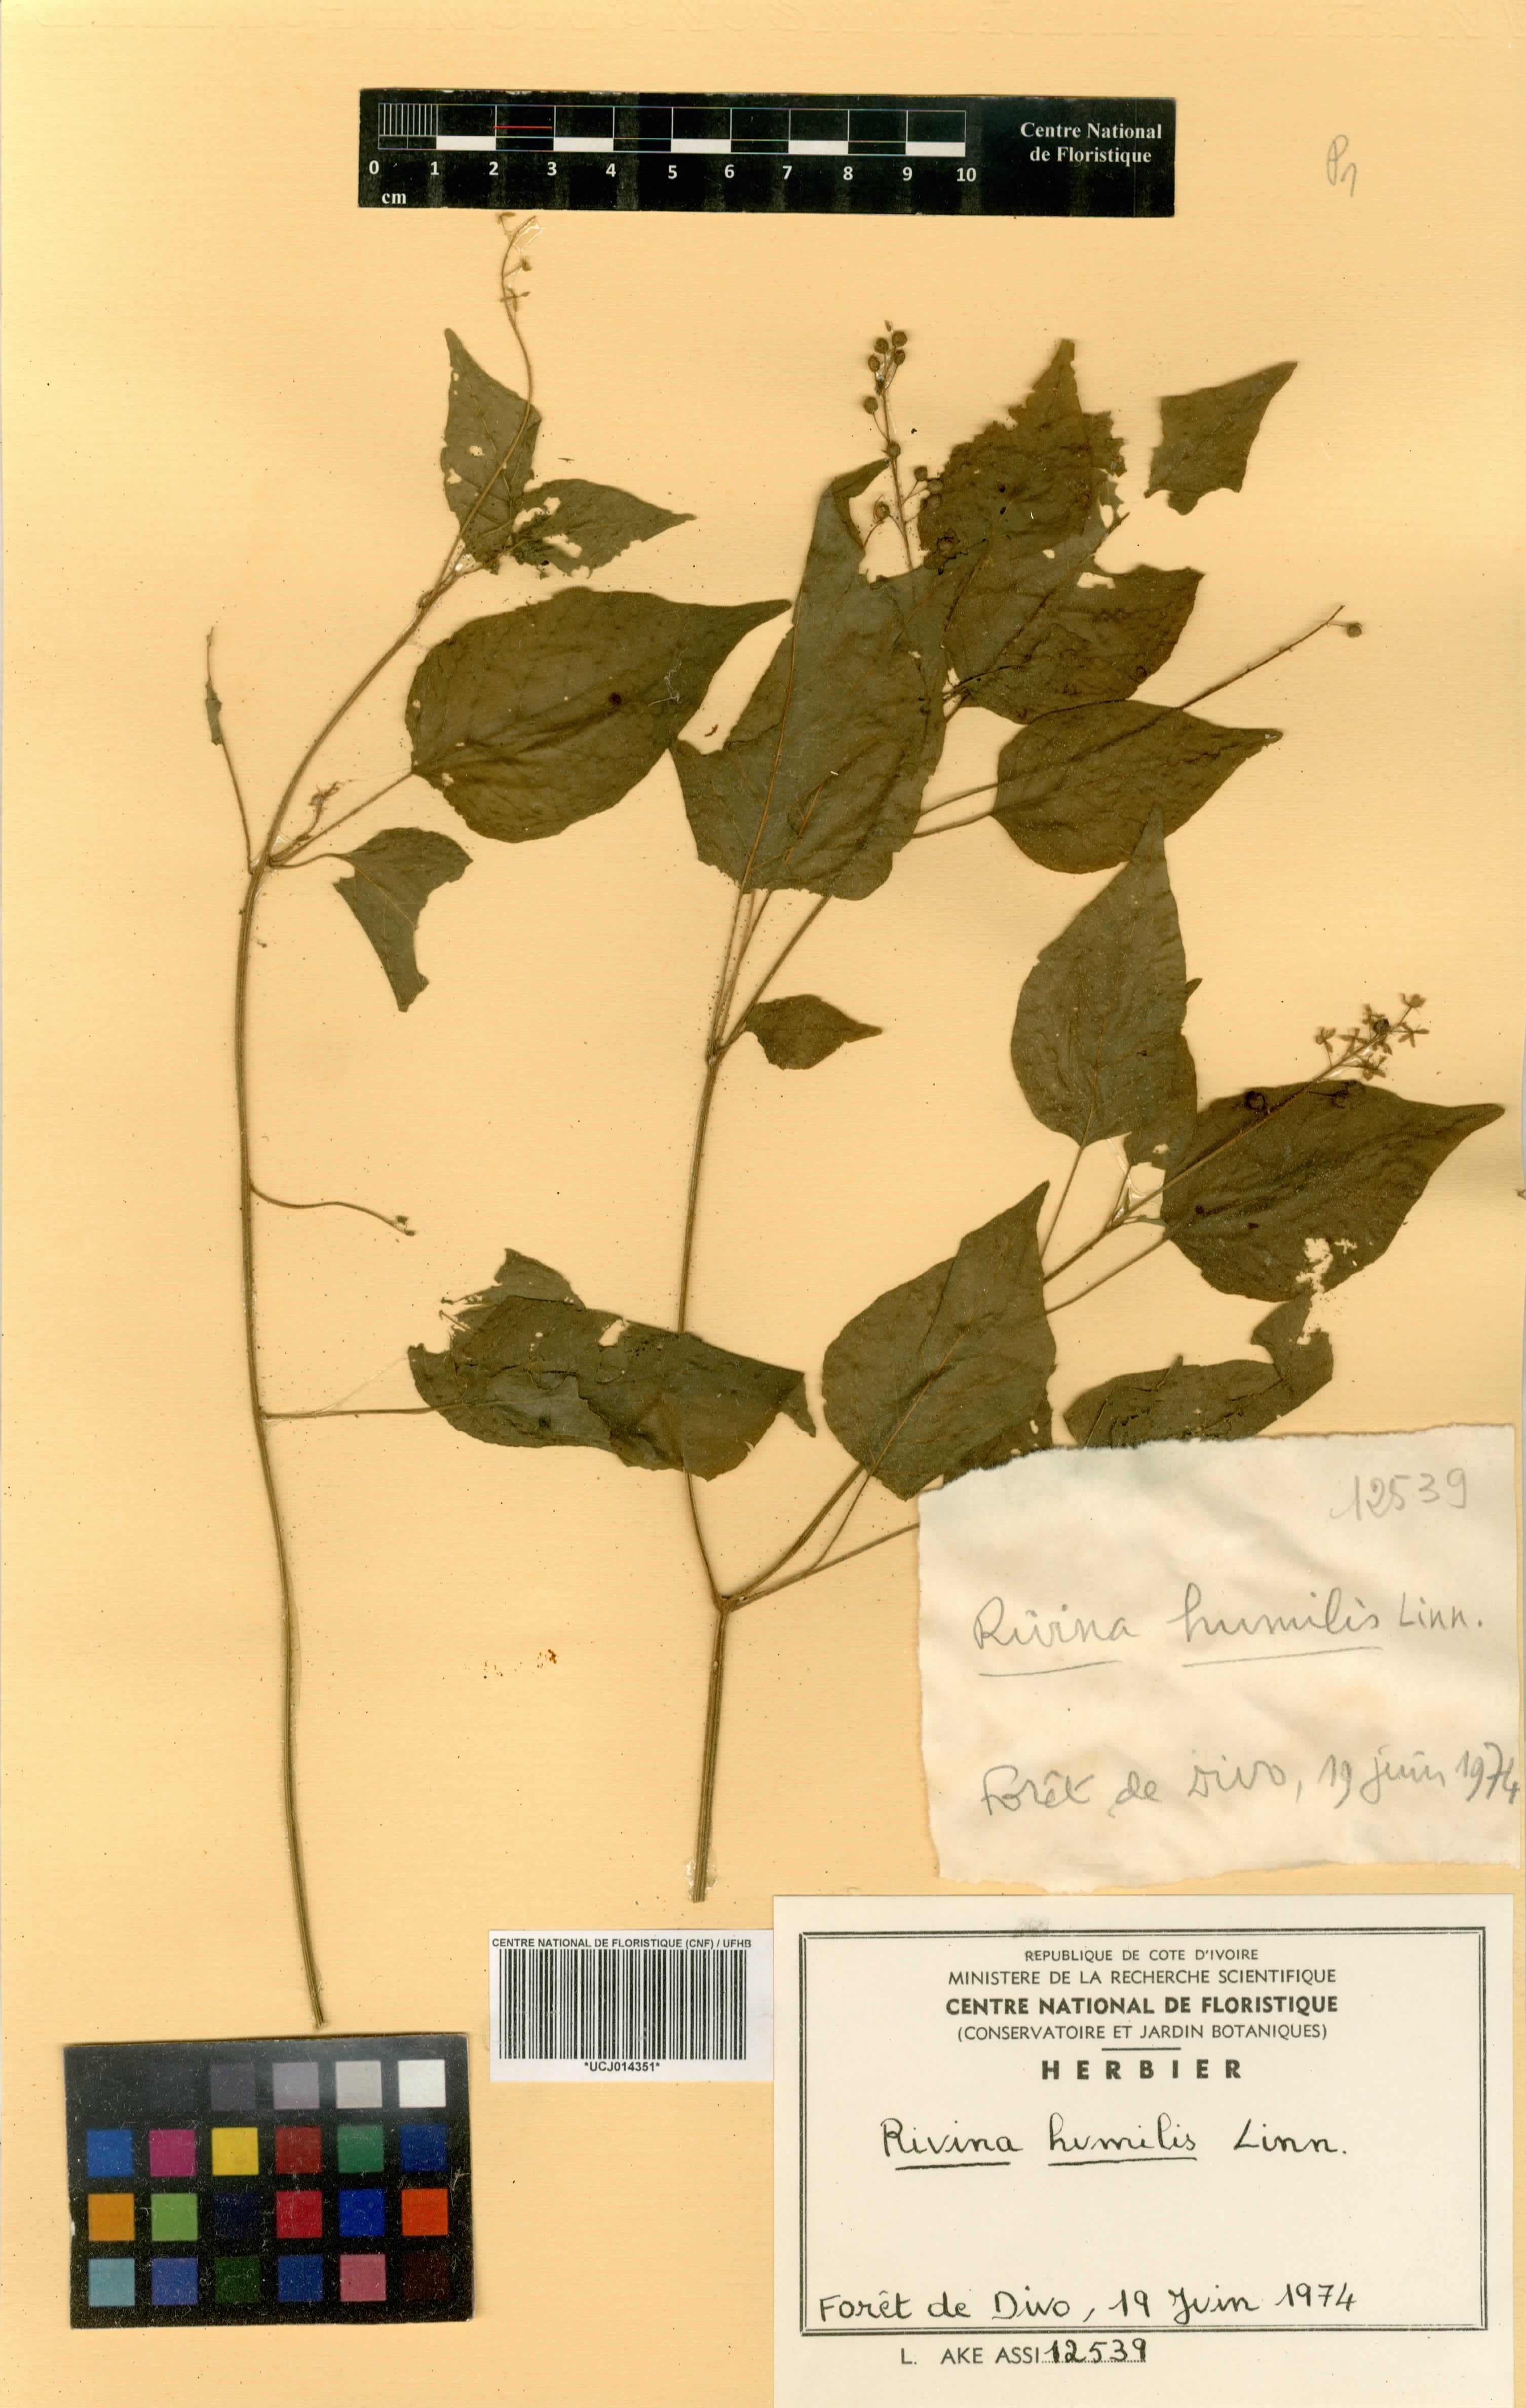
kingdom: Plantae
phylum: Tracheophyta
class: Magnoliopsida
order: Caryophyllales
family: Phytolaccaceae
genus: Rivina
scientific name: Rivina humilis
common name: Rougeplant
